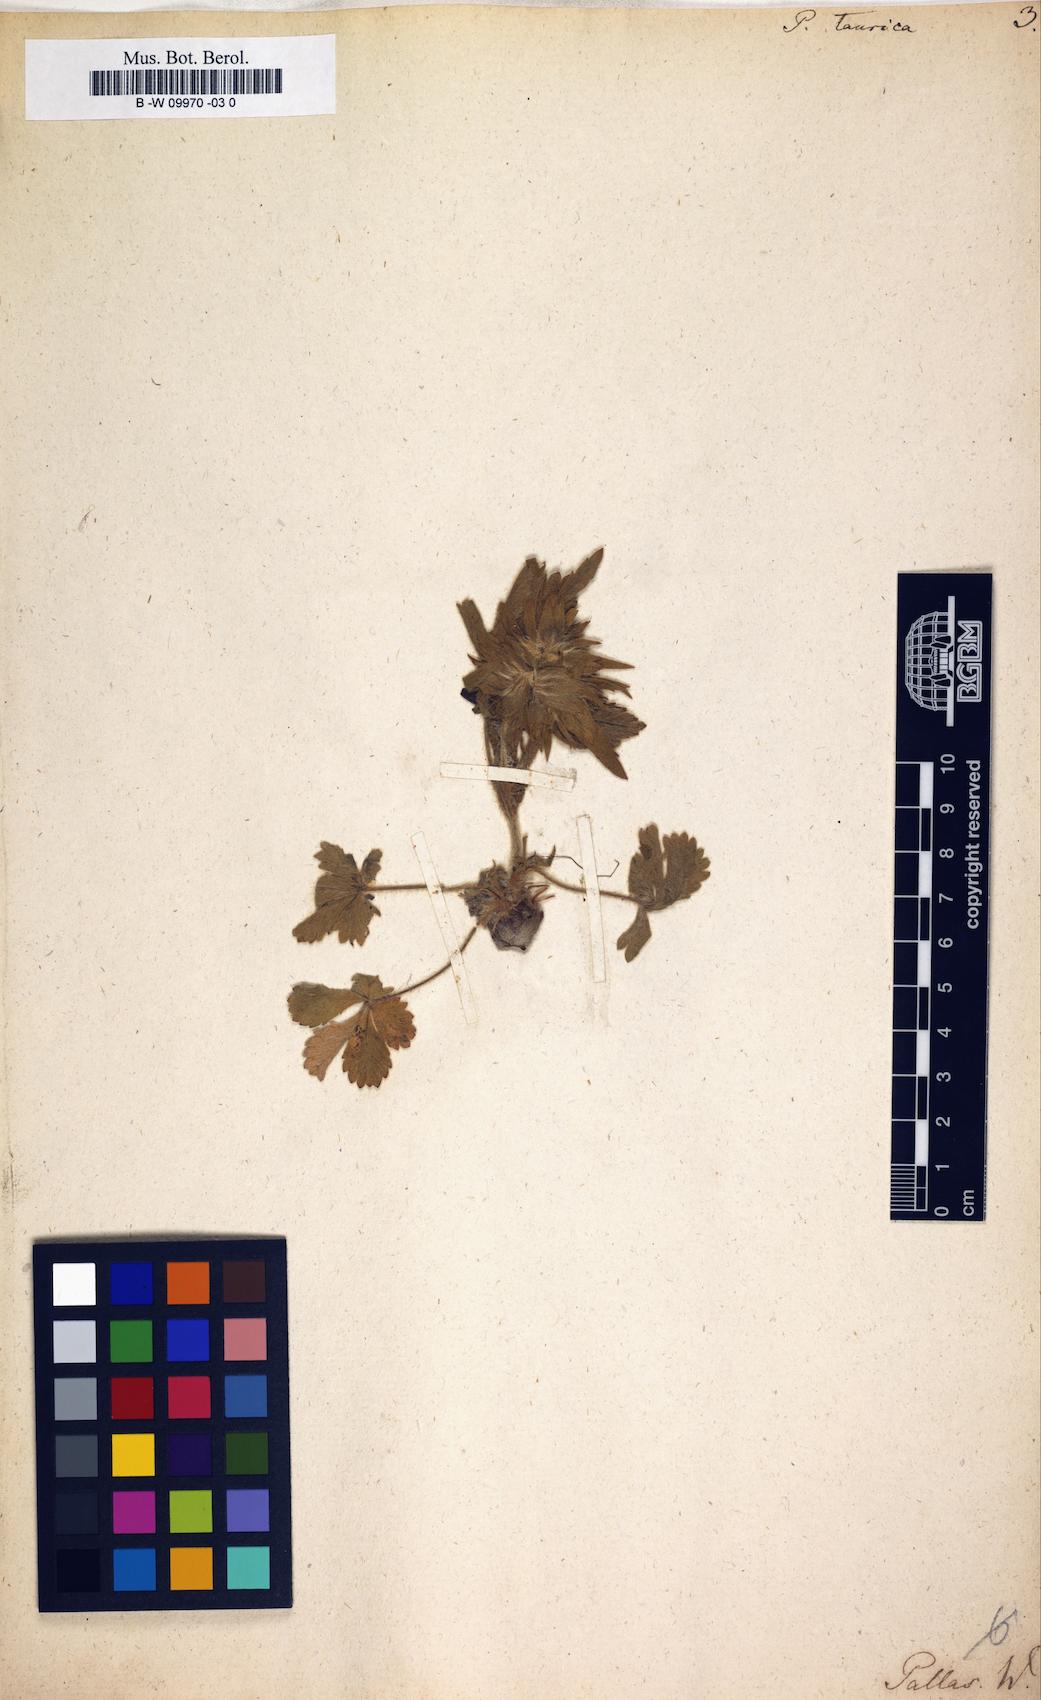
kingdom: Plantae
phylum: Tracheophyta
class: Magnoliopsida
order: Rosales
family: Rosaceae
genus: Potentilla
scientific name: Potentilla taurica
